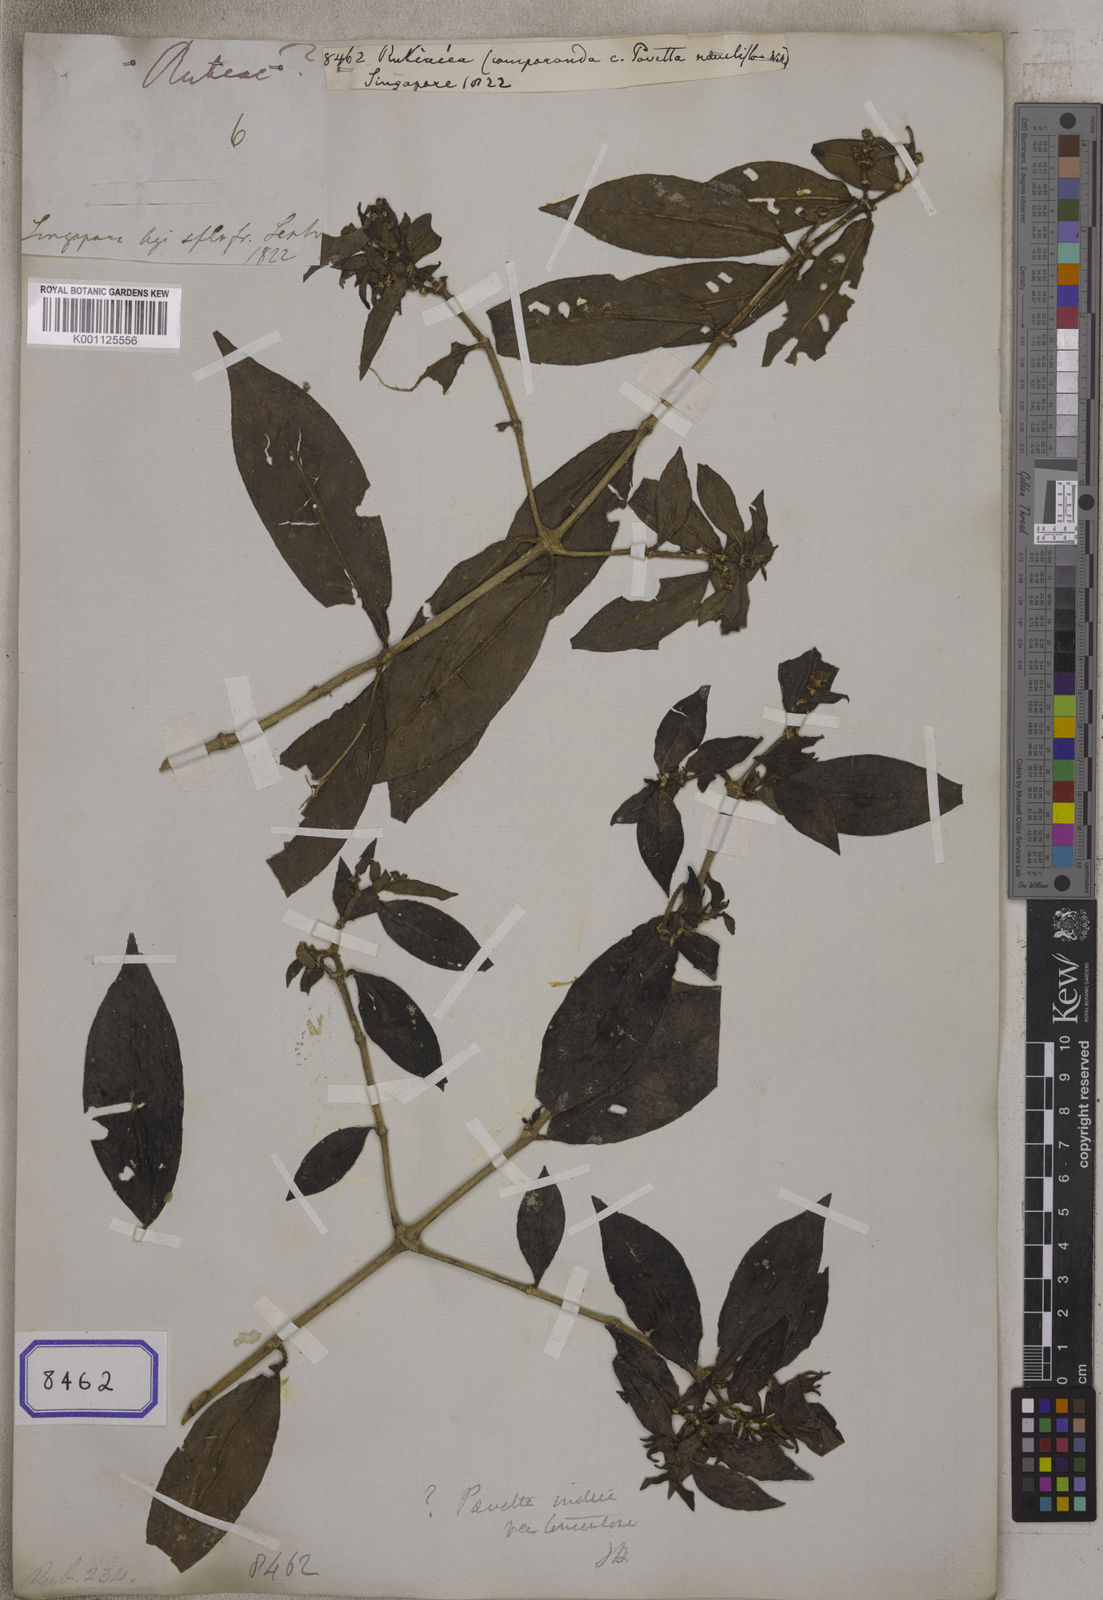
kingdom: Plantae
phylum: Tracheophyta
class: Magnoliopsida
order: Gentianales
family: Rubiaceae
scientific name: Rubiaceae
